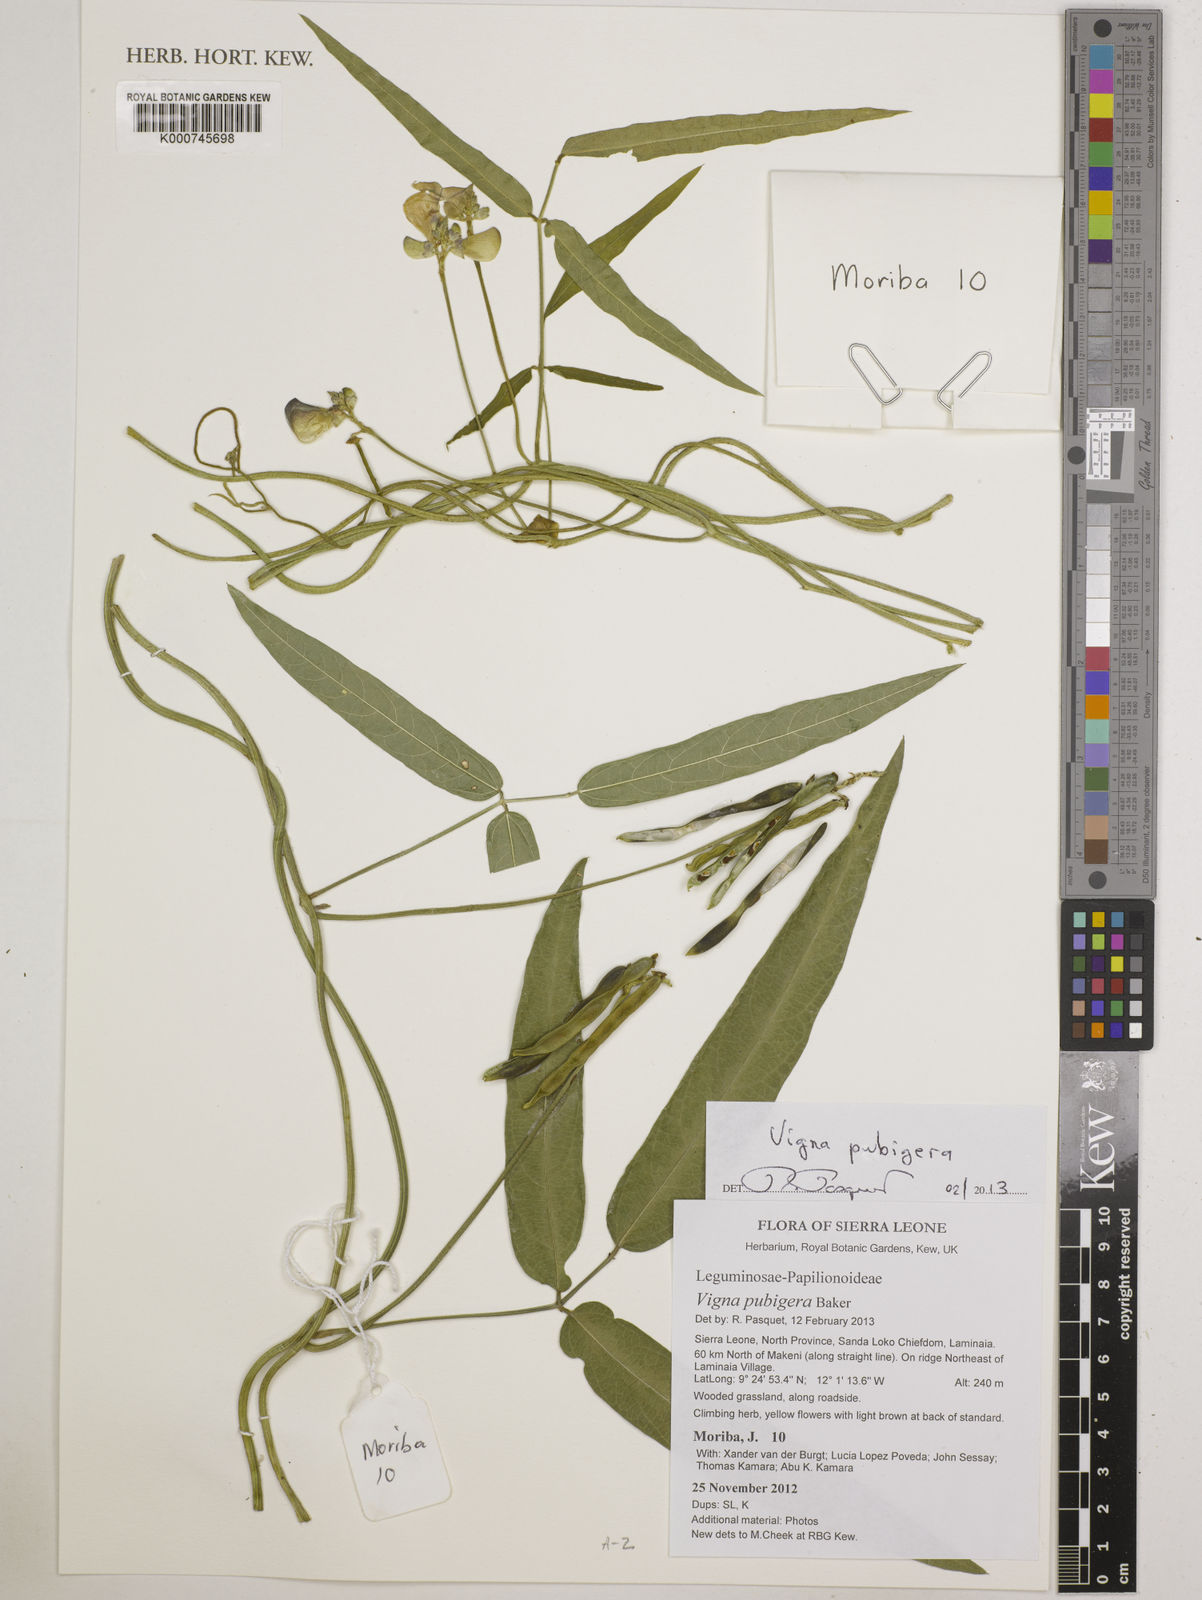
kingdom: Plantae
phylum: Tracheophyta
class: Magnoliopsida
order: Fabales
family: Fabaceae
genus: Vigna
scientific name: Vigna pubigera
